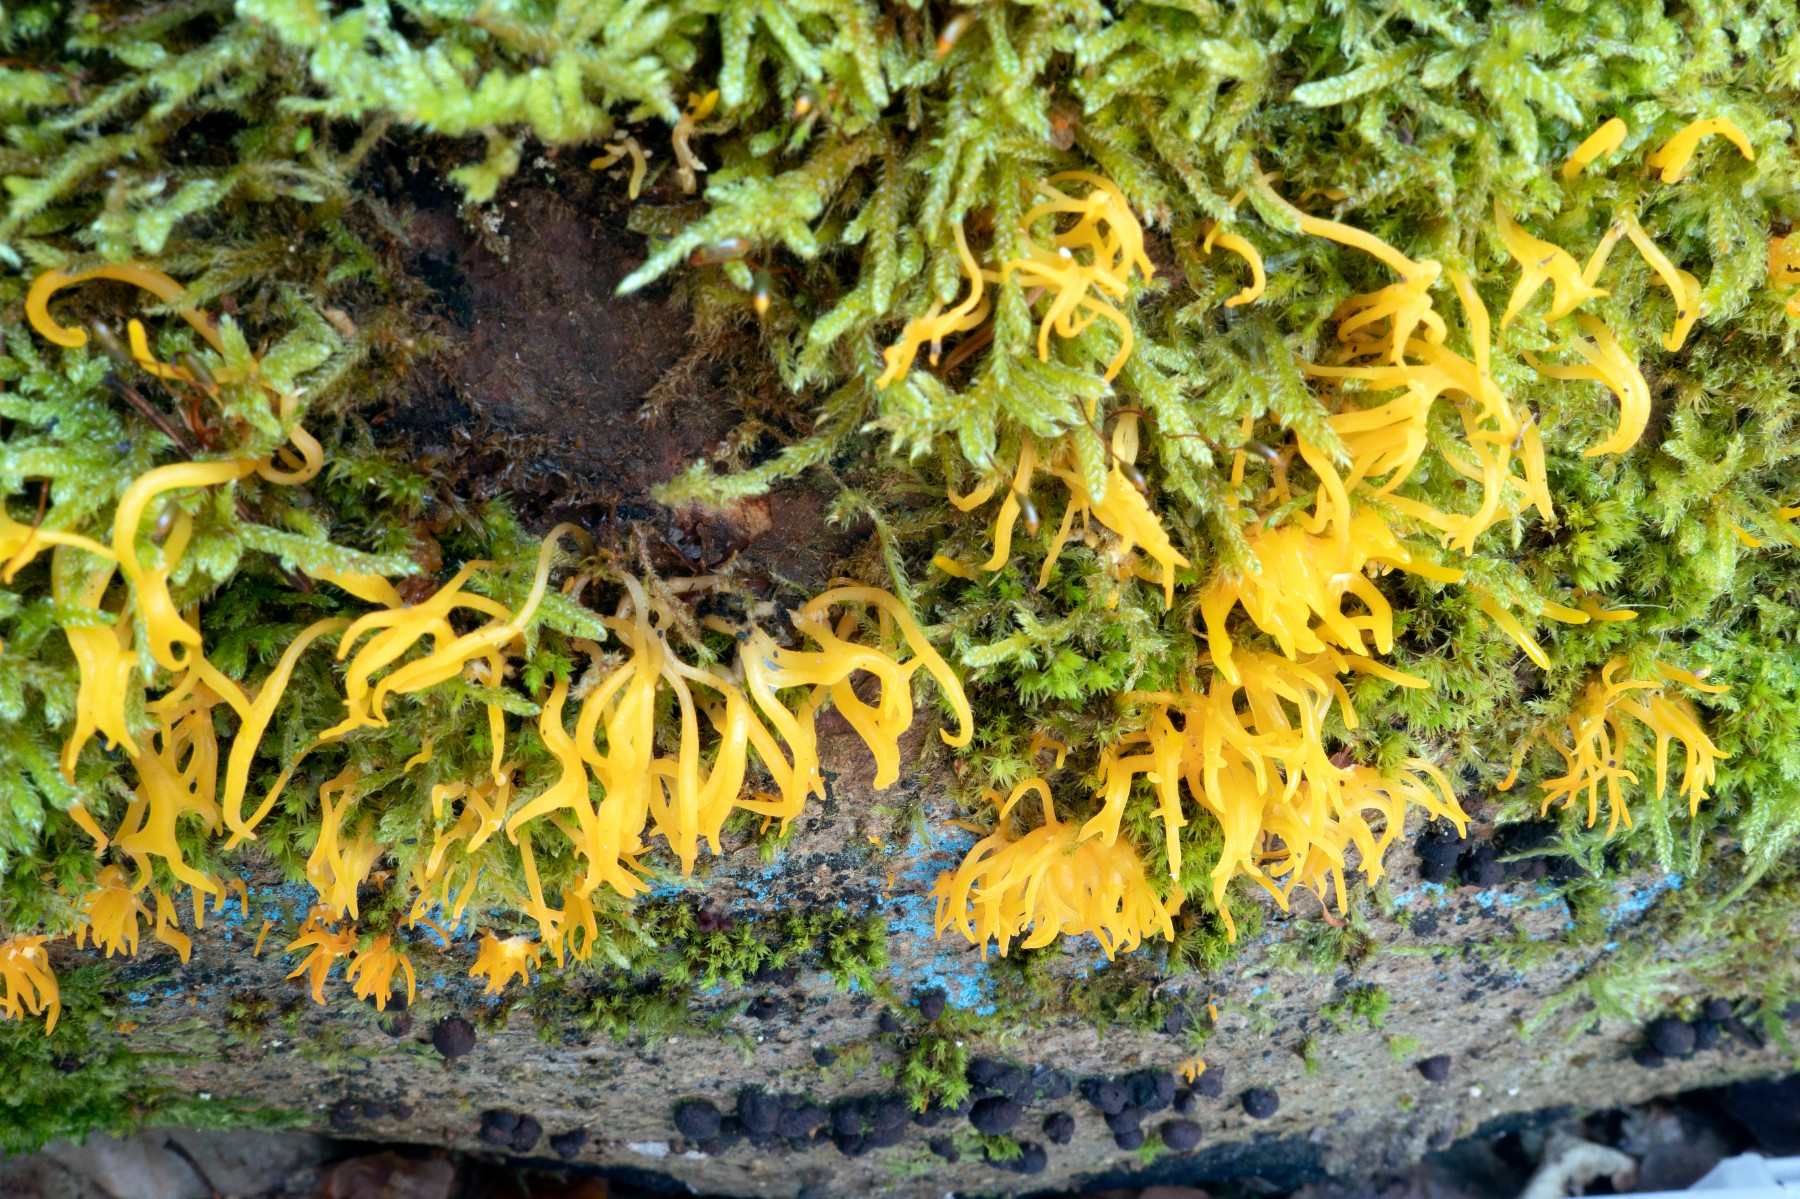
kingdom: Fungi
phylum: Basidiomycota
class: Dacrymycetes
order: Dacrymycetales
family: Dacrymycetaceae
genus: Calocera
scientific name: Calocera cornea
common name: liden guldgaffel
